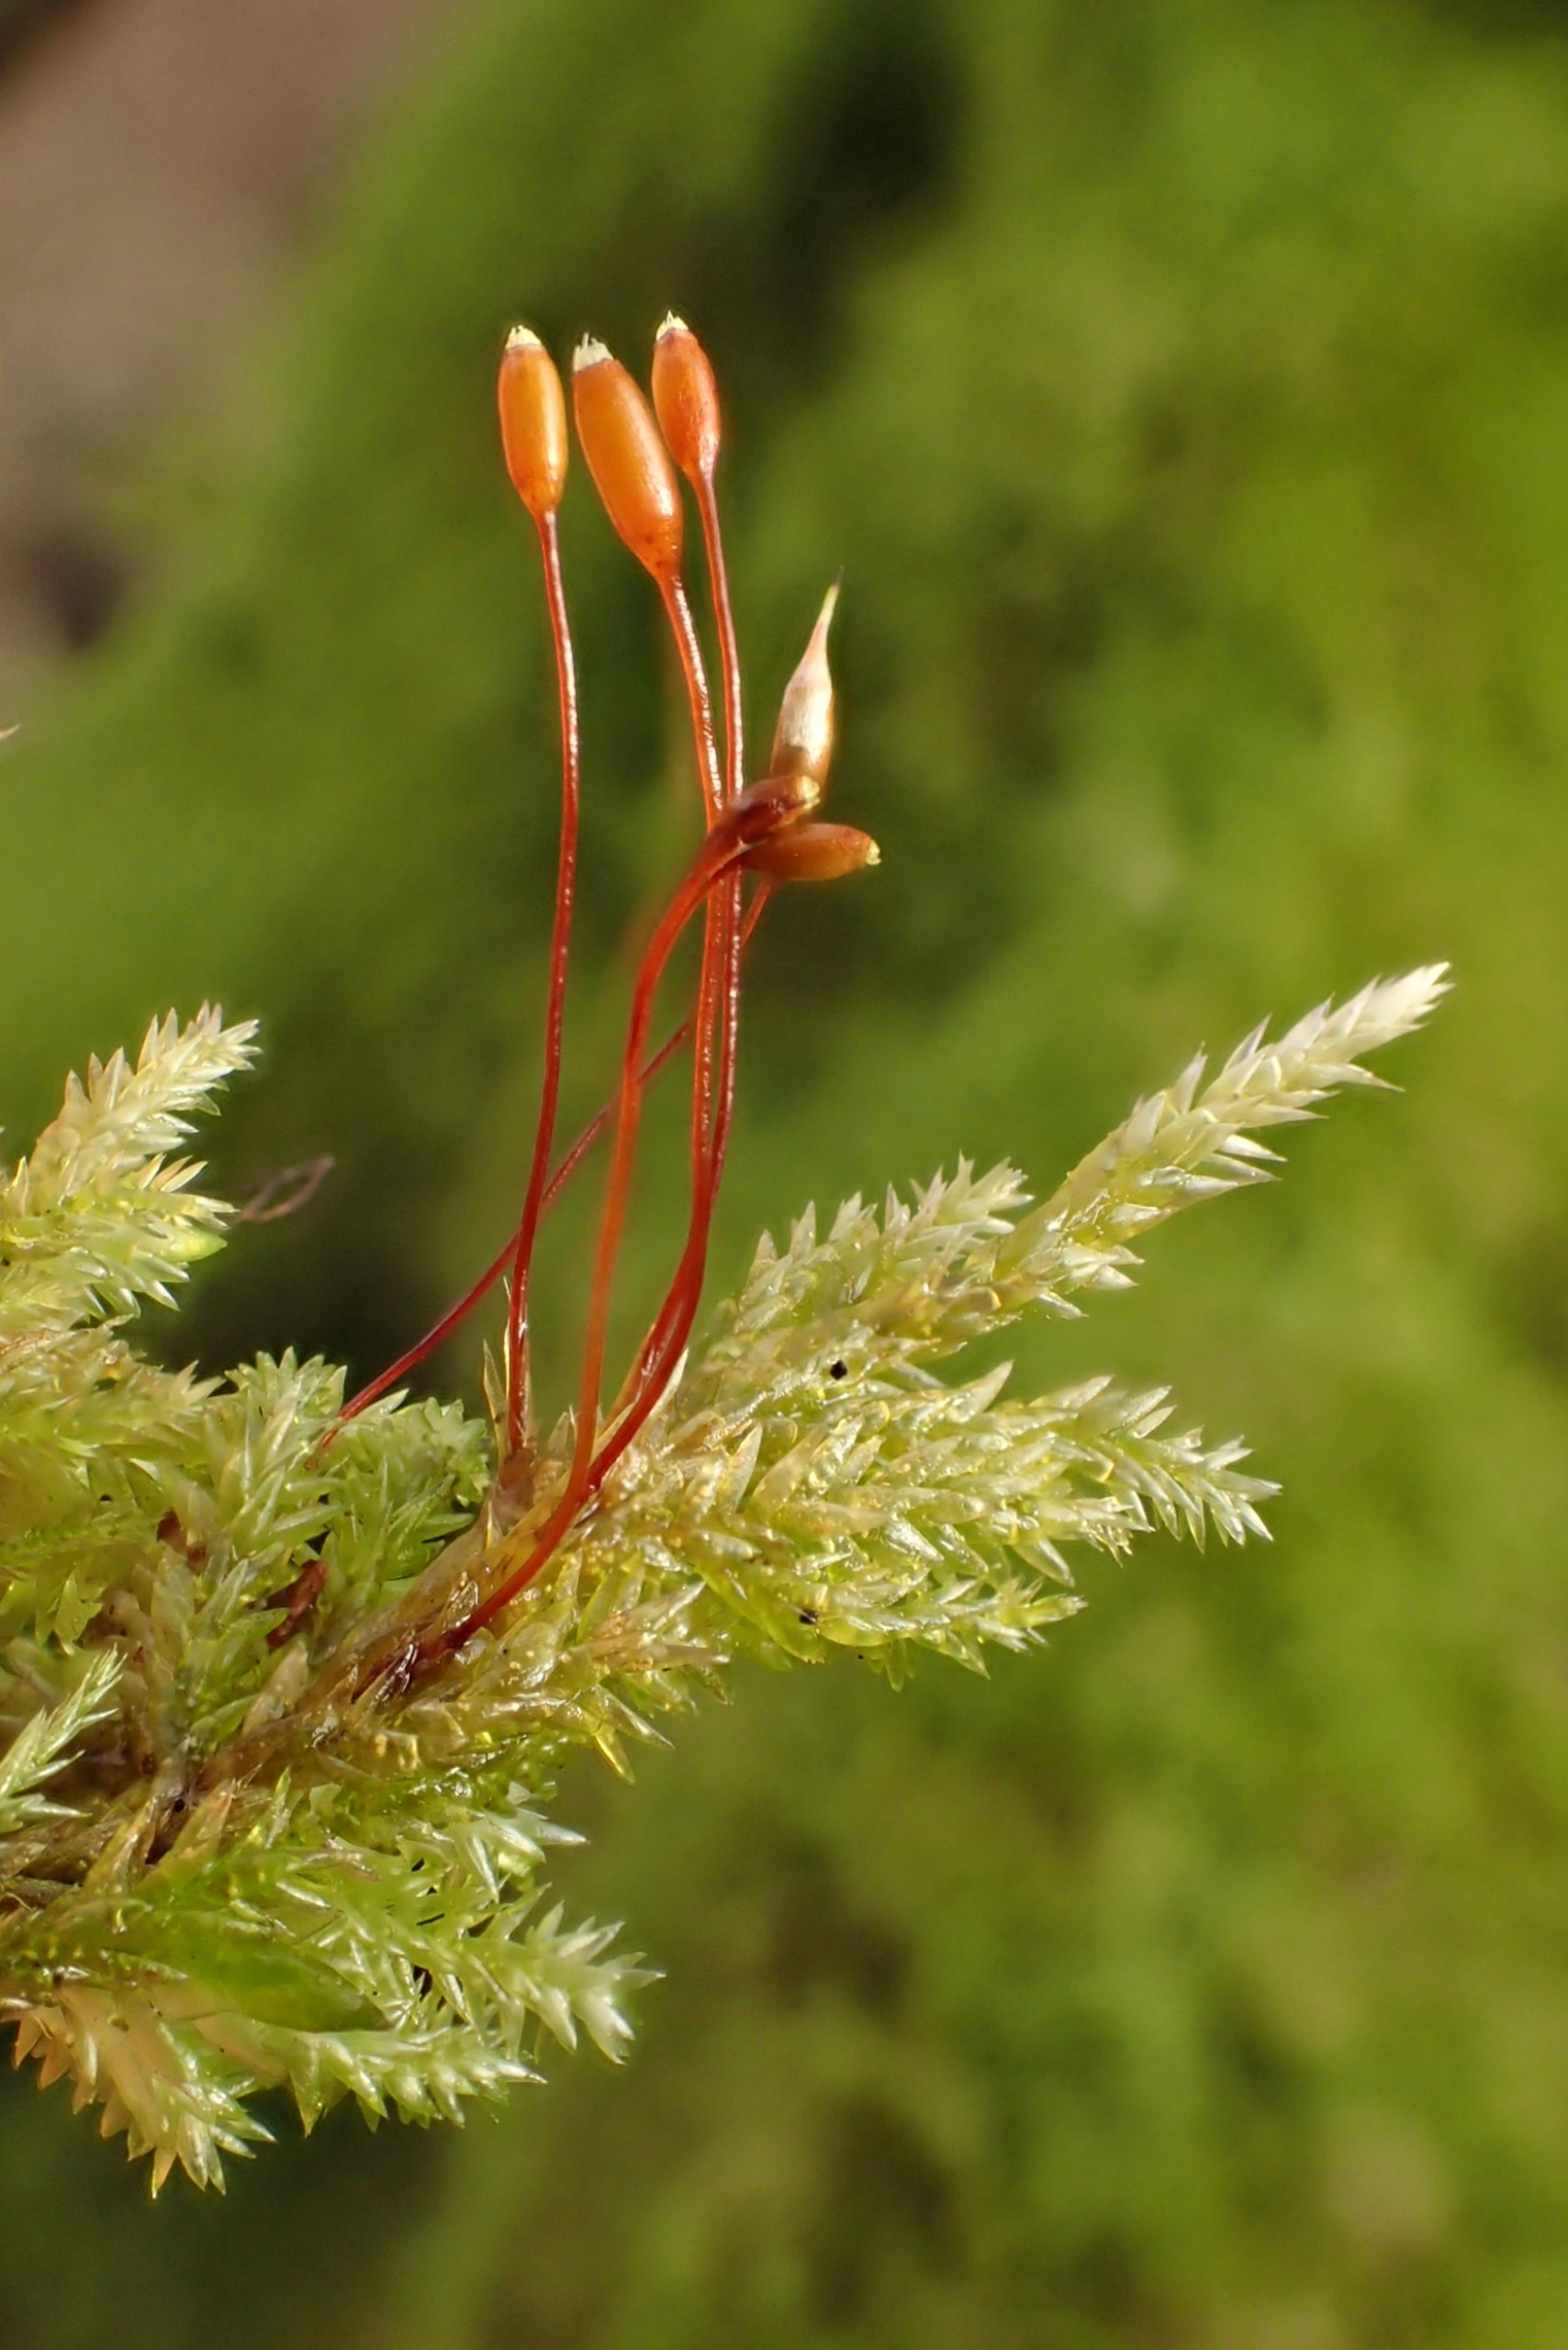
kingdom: Plantae
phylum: Bryophyta
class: Bryopsida
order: Hypnales
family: Lembophyllaceae
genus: Isothecium
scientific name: Isothecium alopecuroides
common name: Stor stammemos
